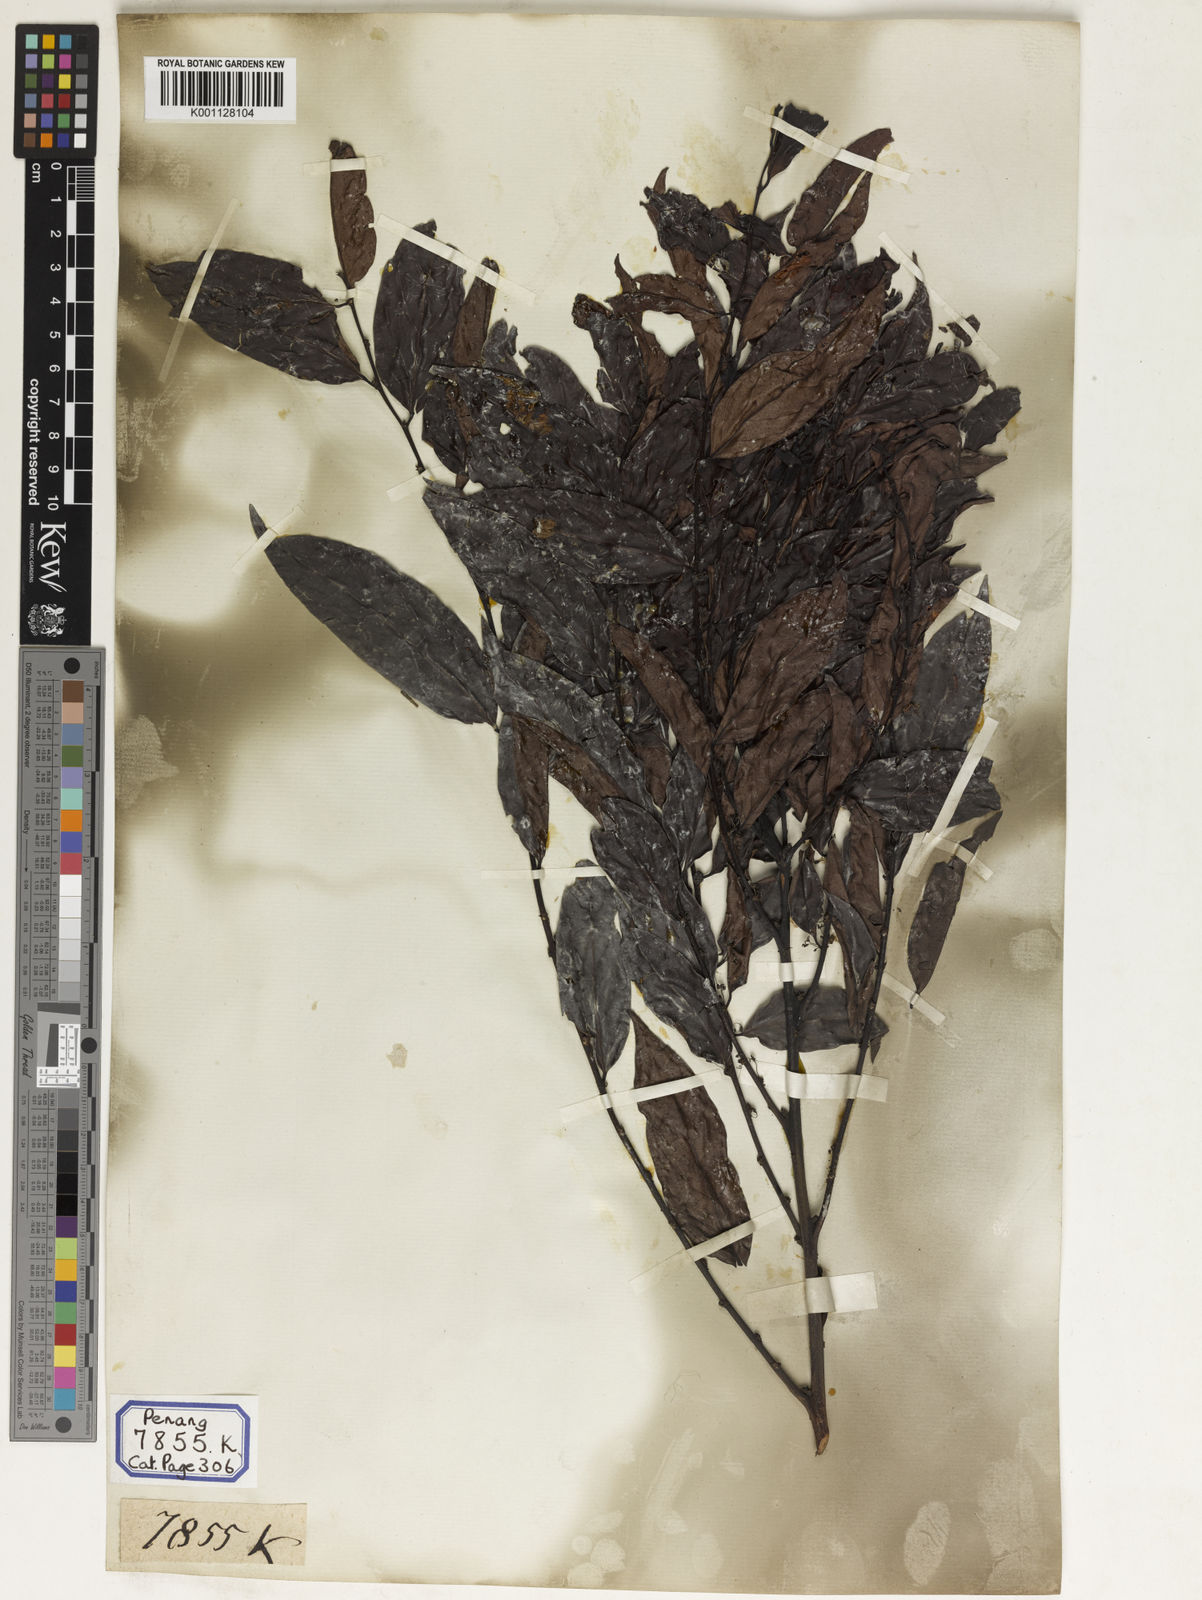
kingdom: Plantae
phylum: Tracheophyta
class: Magnoliopsida
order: Malpighiales
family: Euphorbiaceae
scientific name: Euphorbiaceae
